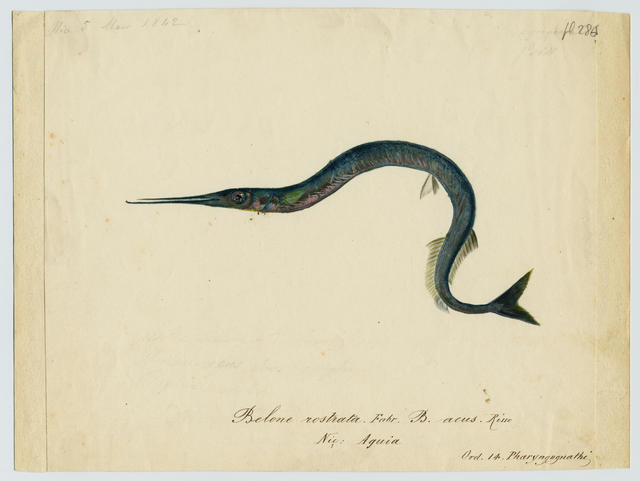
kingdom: Animalia
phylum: Chordata
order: Beloniformes
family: Belonidae
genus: Belone
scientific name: Belone belone
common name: Garfish
